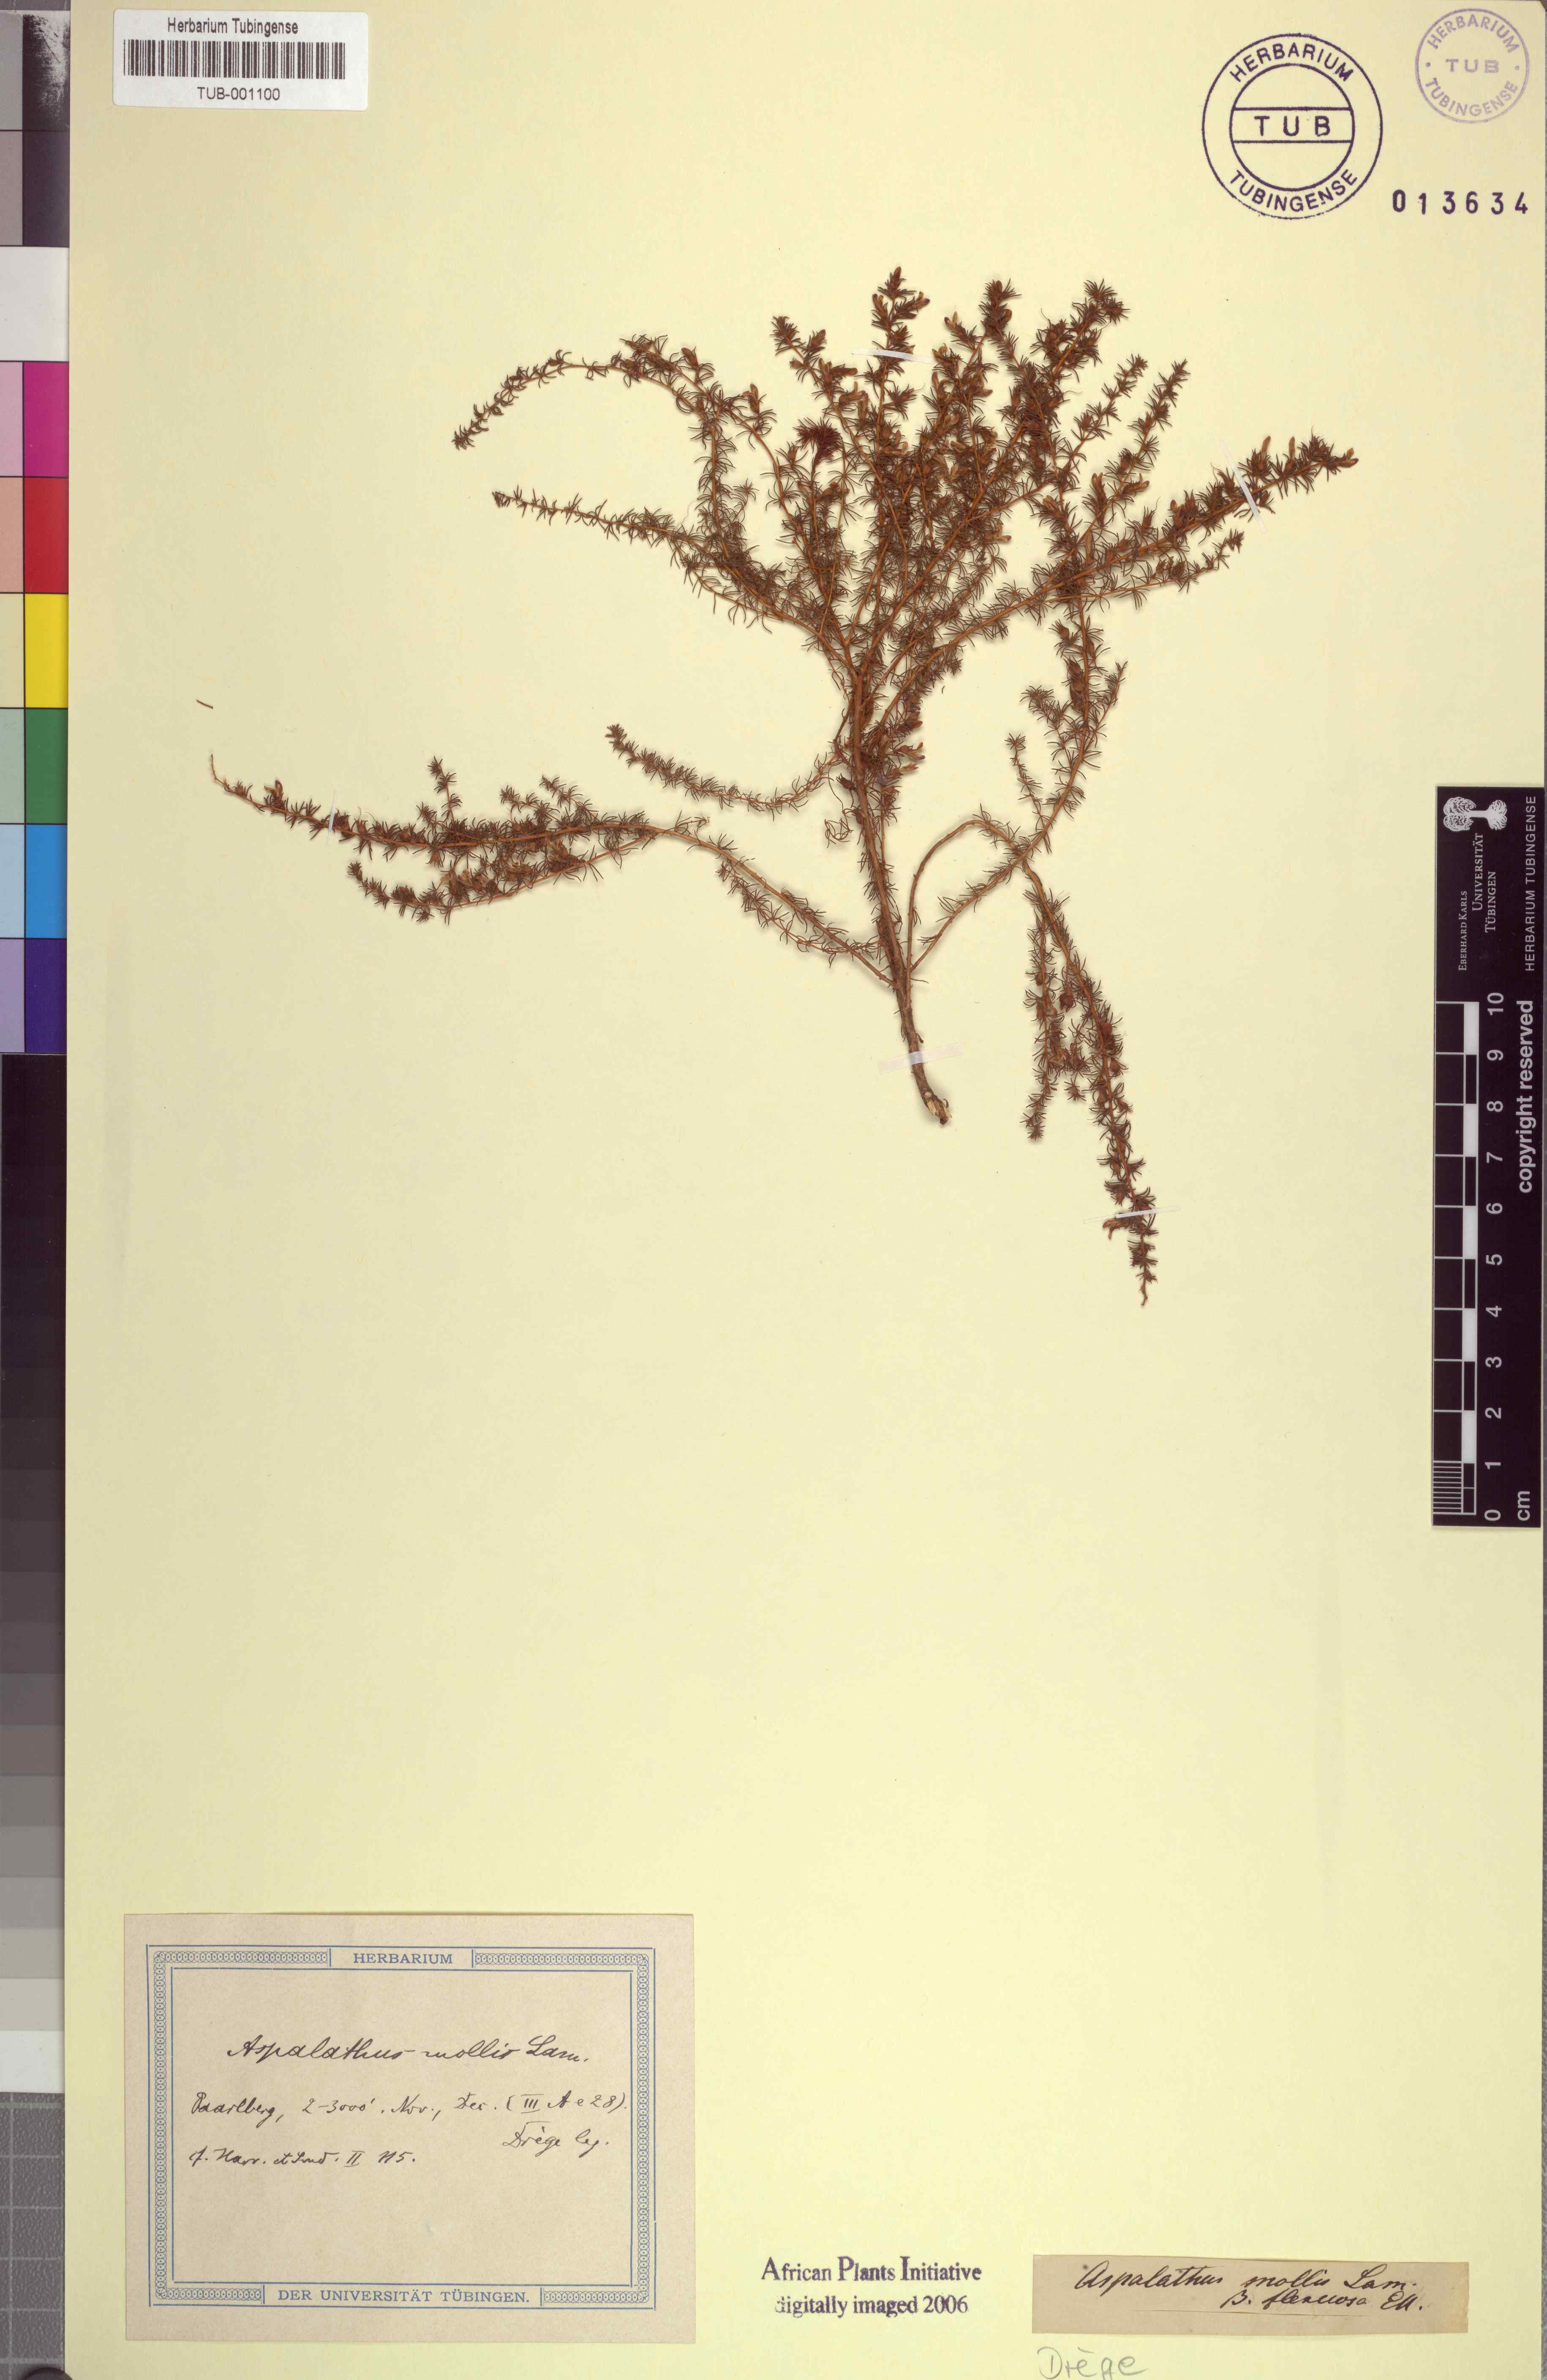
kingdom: Plantae
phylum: Tracheophyta
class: Magnoliopsida
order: Fabales
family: Fabaceae
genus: Aspalathus
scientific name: Aspalathus ericifolia
